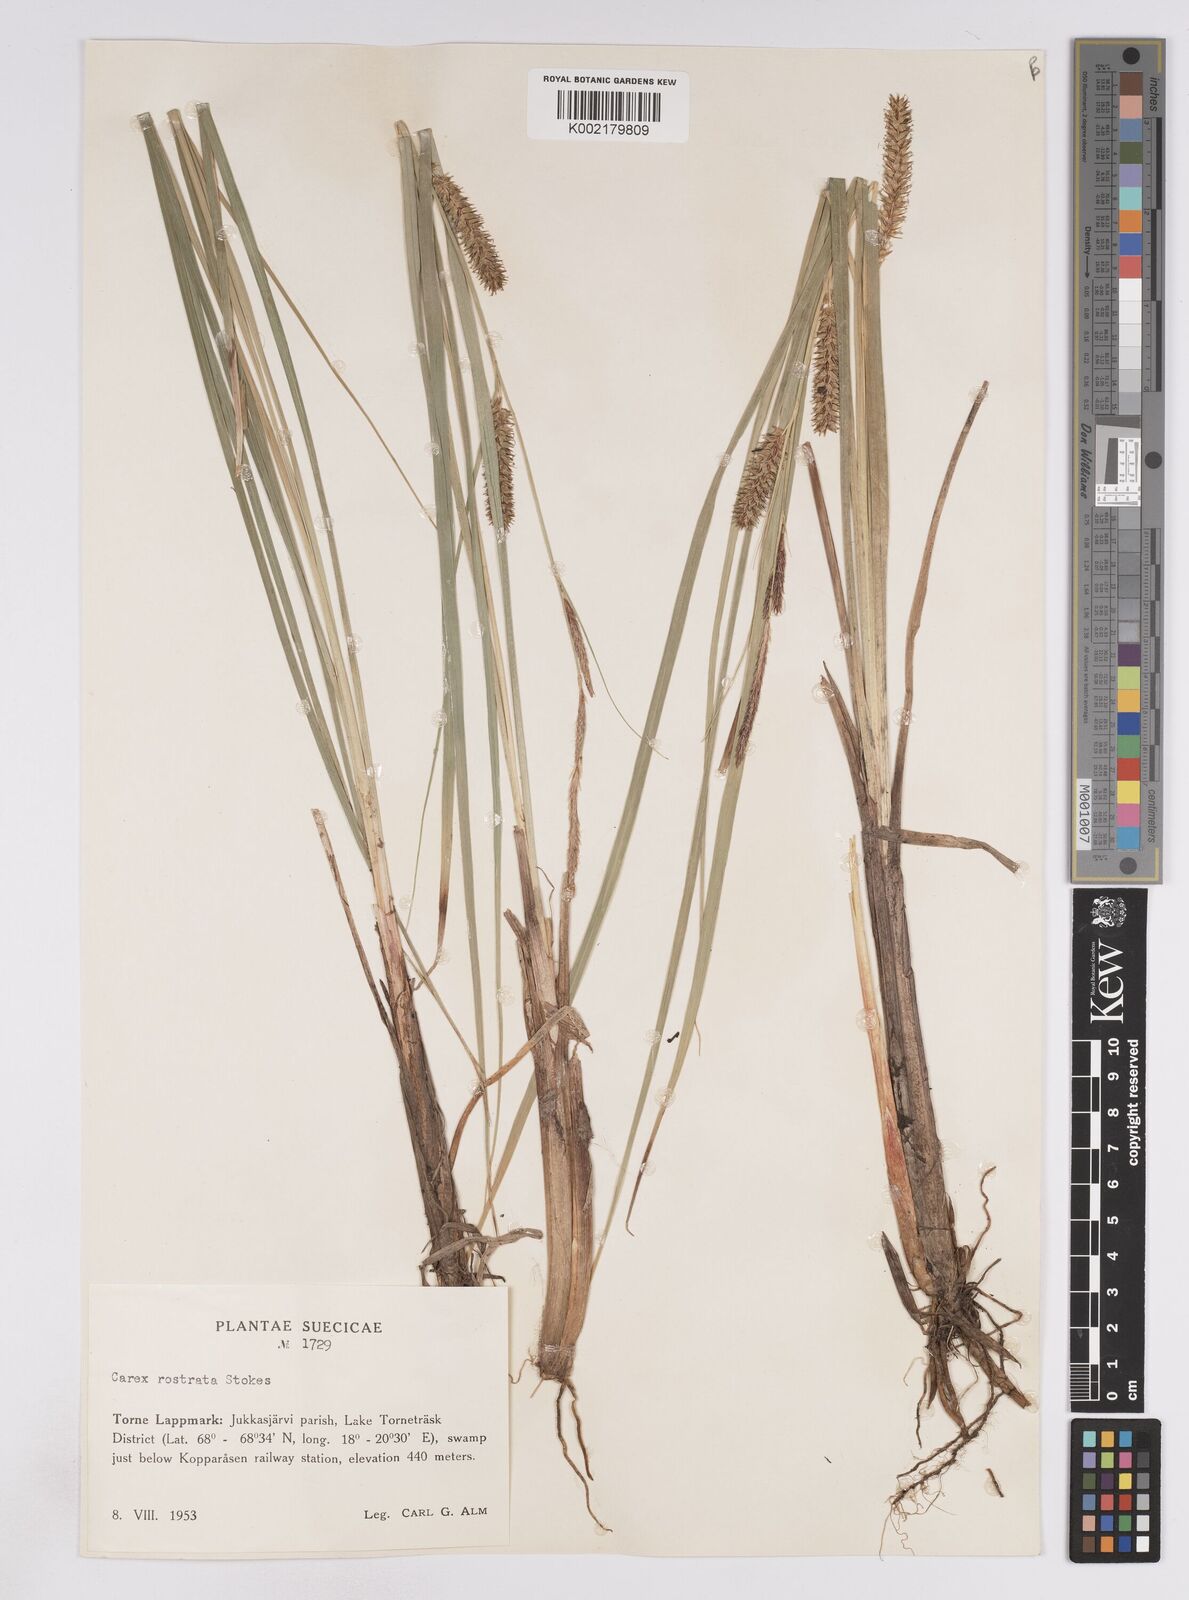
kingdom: Plantae
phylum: Tracheophyta
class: Liliopsida
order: Poales
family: Cyperaceae
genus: Carex
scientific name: Carex rostrata
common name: Bottle sedge
